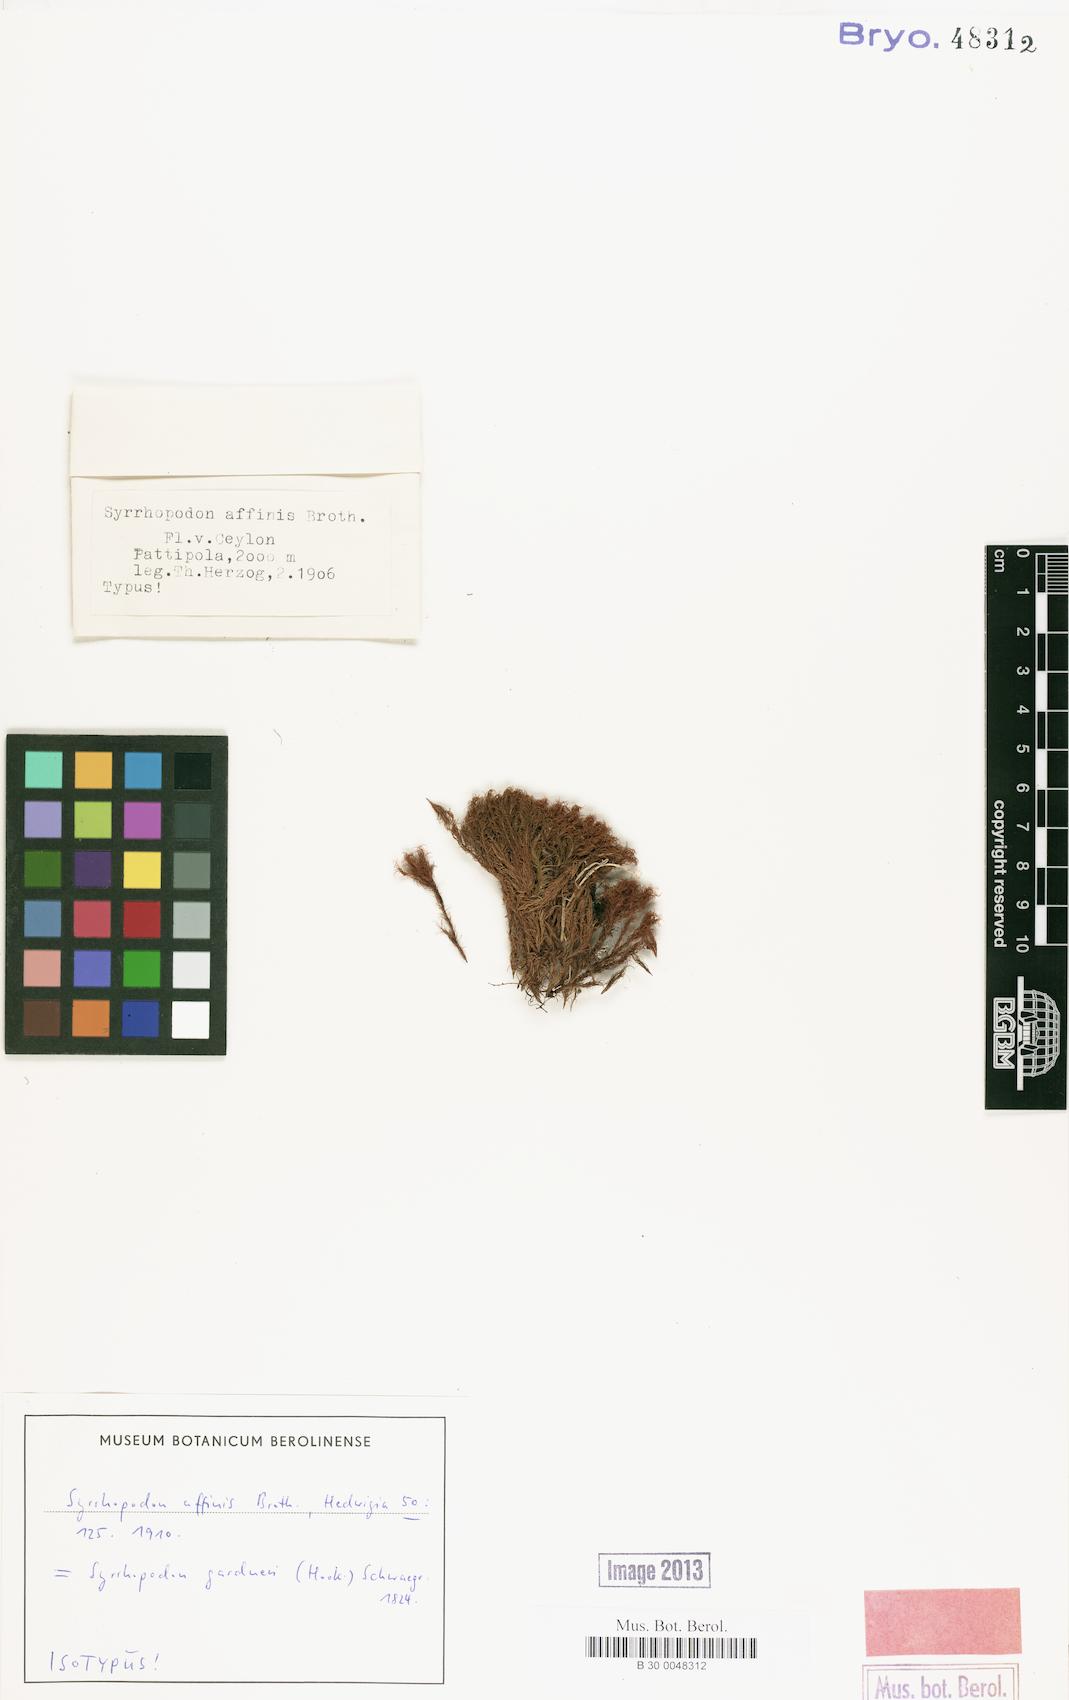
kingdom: Plantae
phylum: Bryophyta
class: Bryopsida
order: Dicranales
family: Calymperaceae
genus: Syrrhopodon
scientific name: Syrrhopodon gardneri
